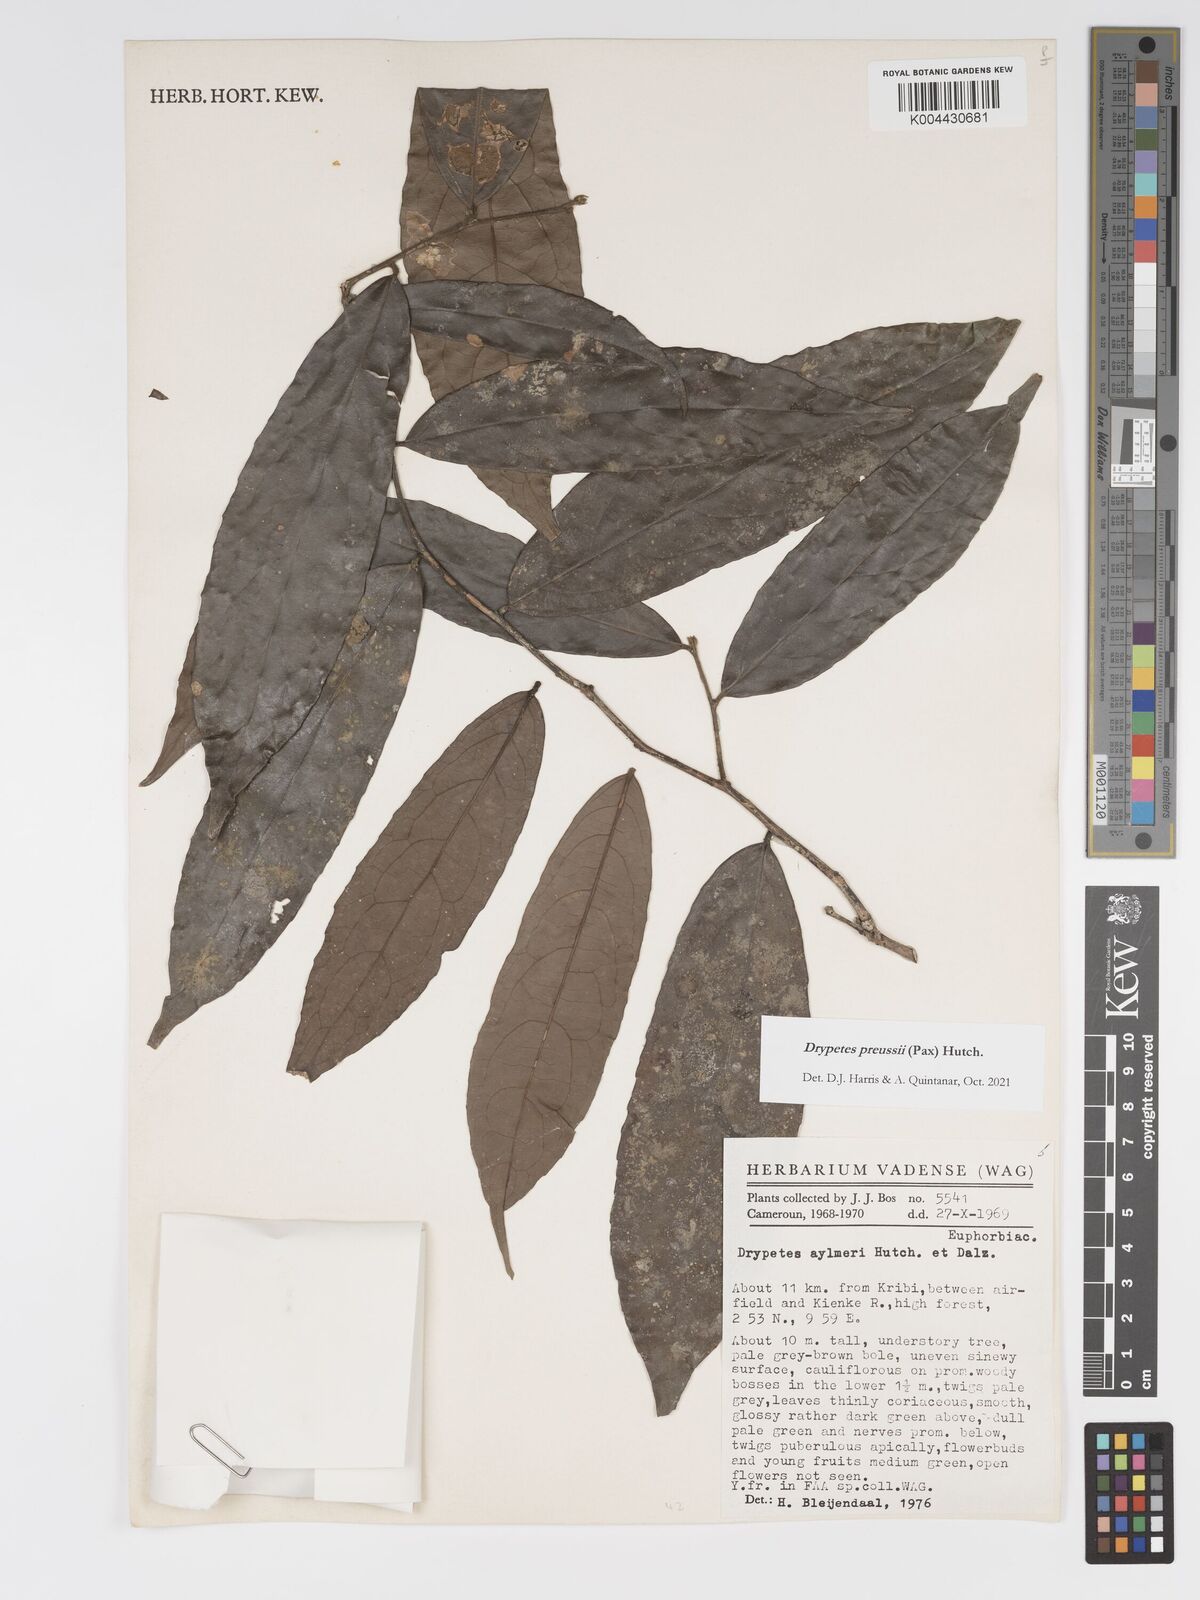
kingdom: Plantae
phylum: Tracheophyta
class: Magnoliopsida
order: Malpighiales
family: Putranjivaceae
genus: Drypetes
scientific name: Drypetes preussii
